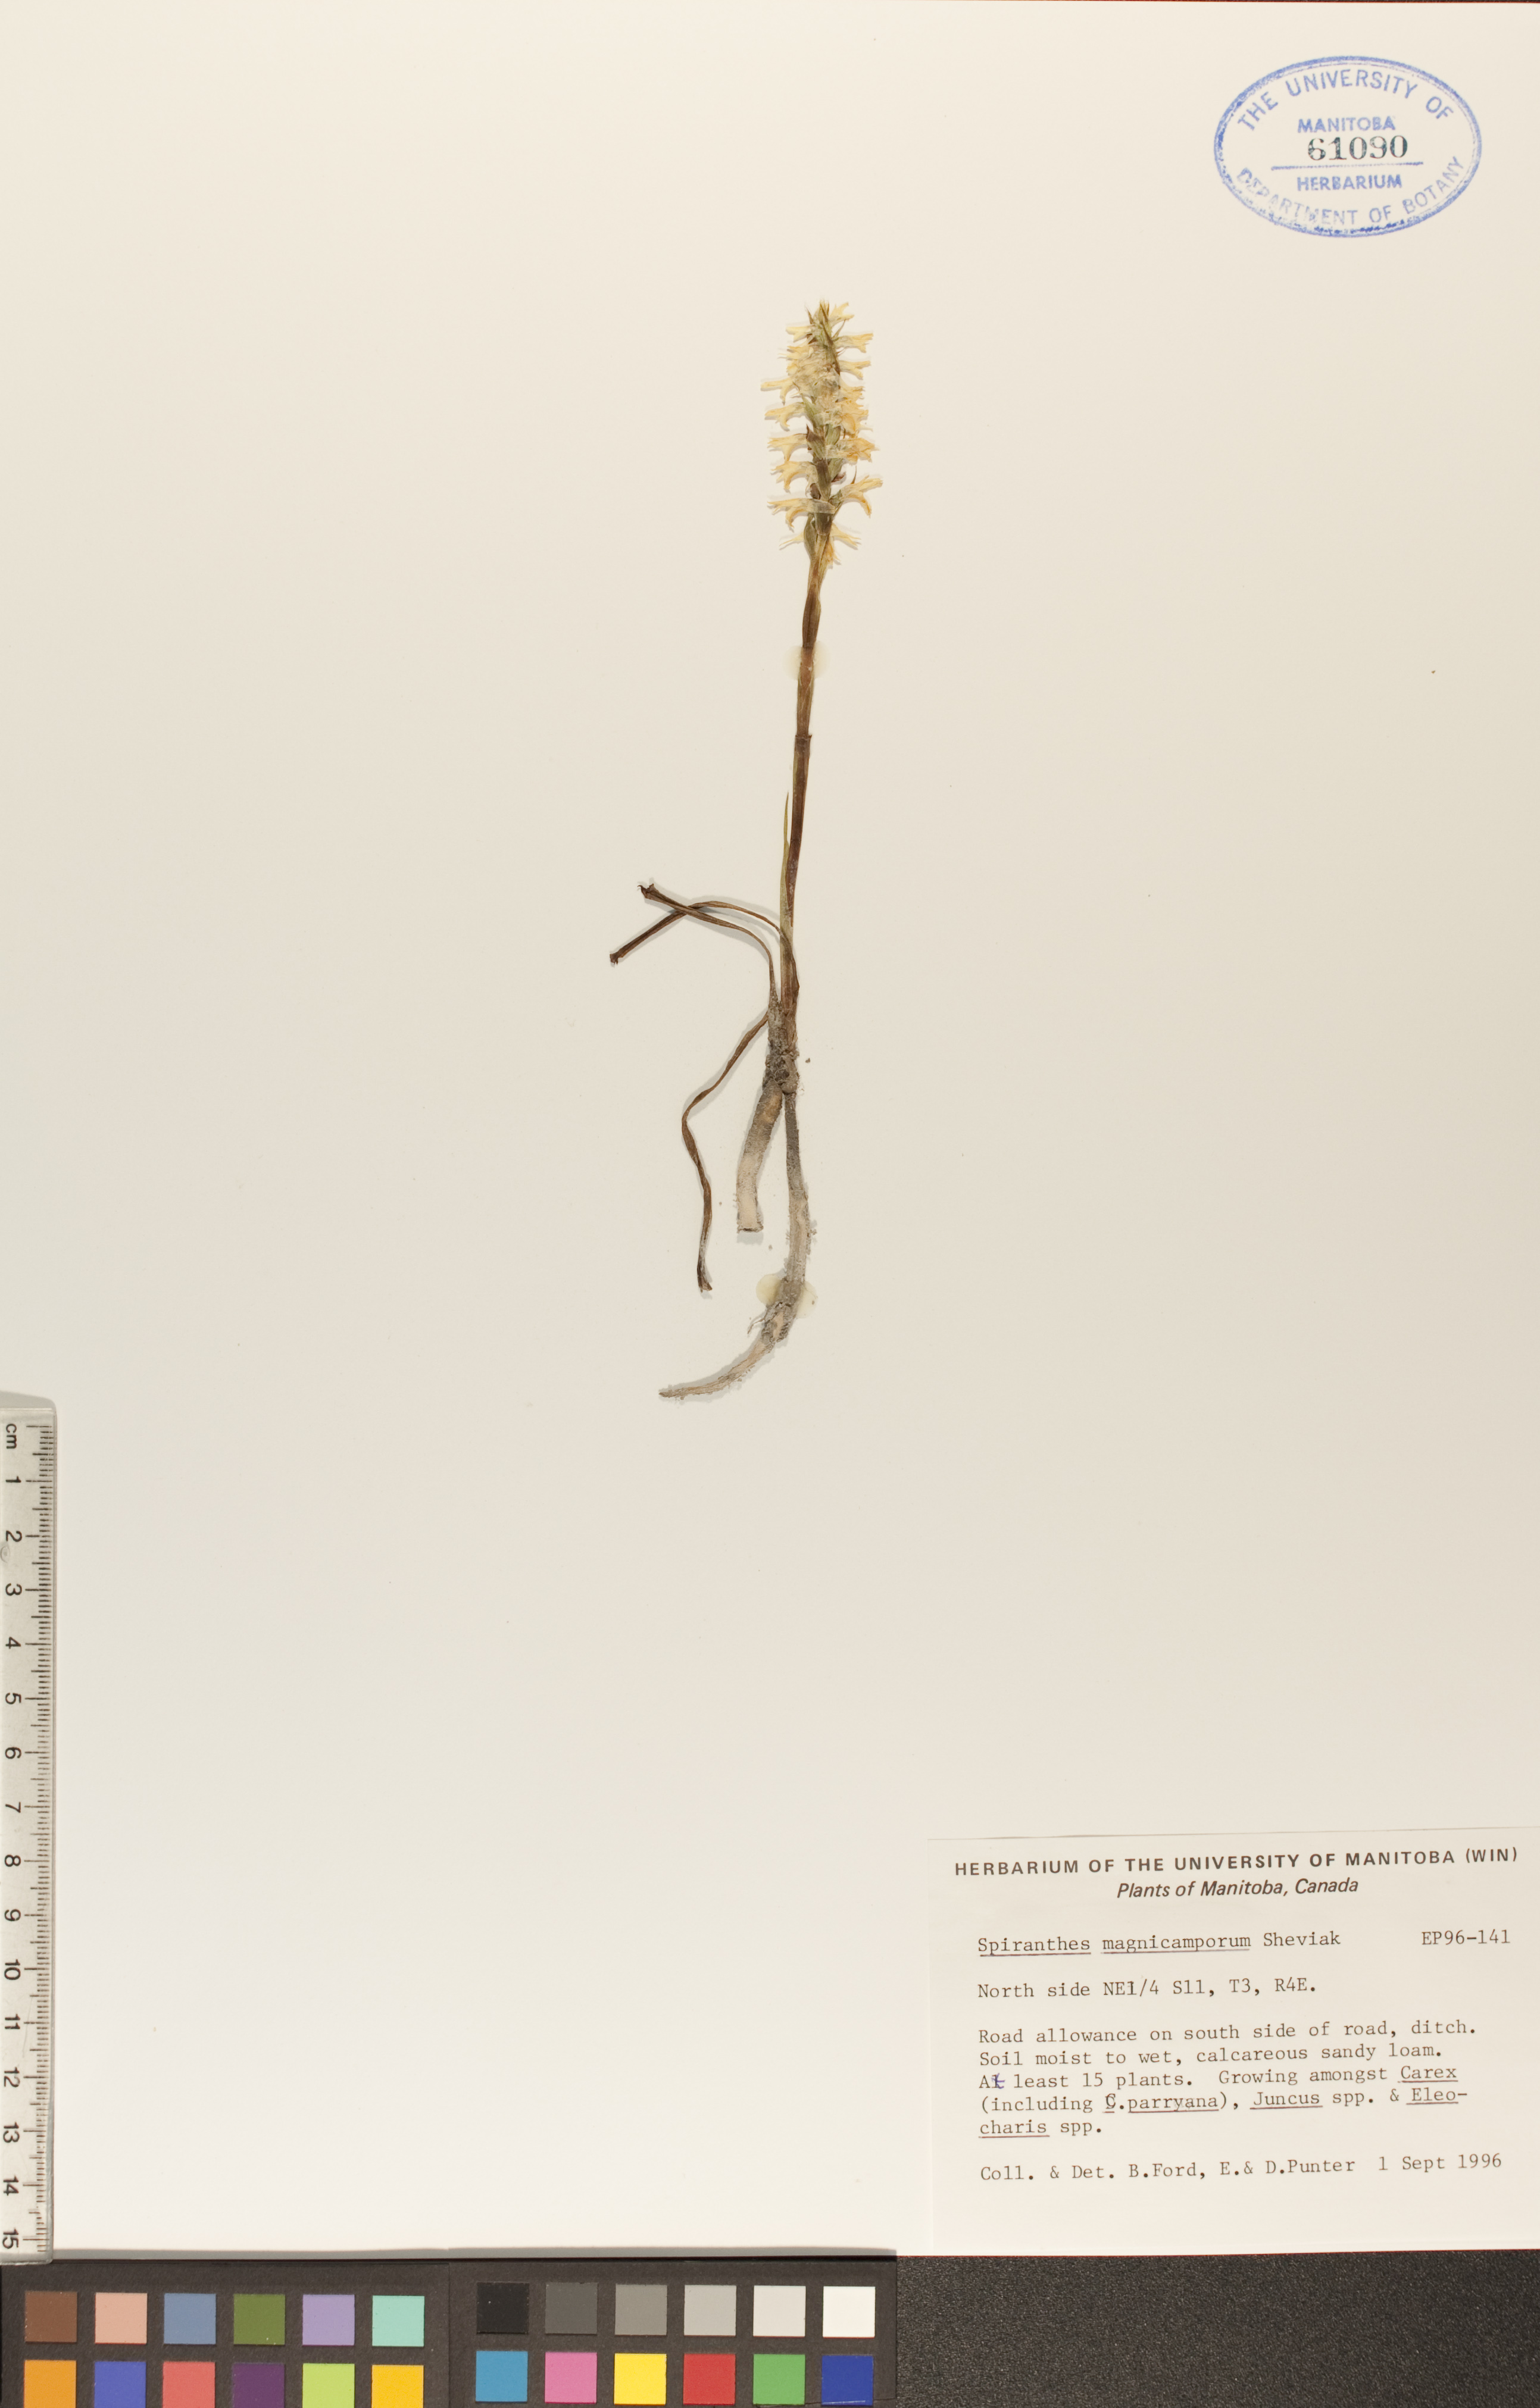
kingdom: Plantae
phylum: Tracheophyta
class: Liliopsida
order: Asparagales
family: Orchidaceae
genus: Spiranthes
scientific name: Spiranthes magnicamporum
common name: Great plains ladies'-tresses
